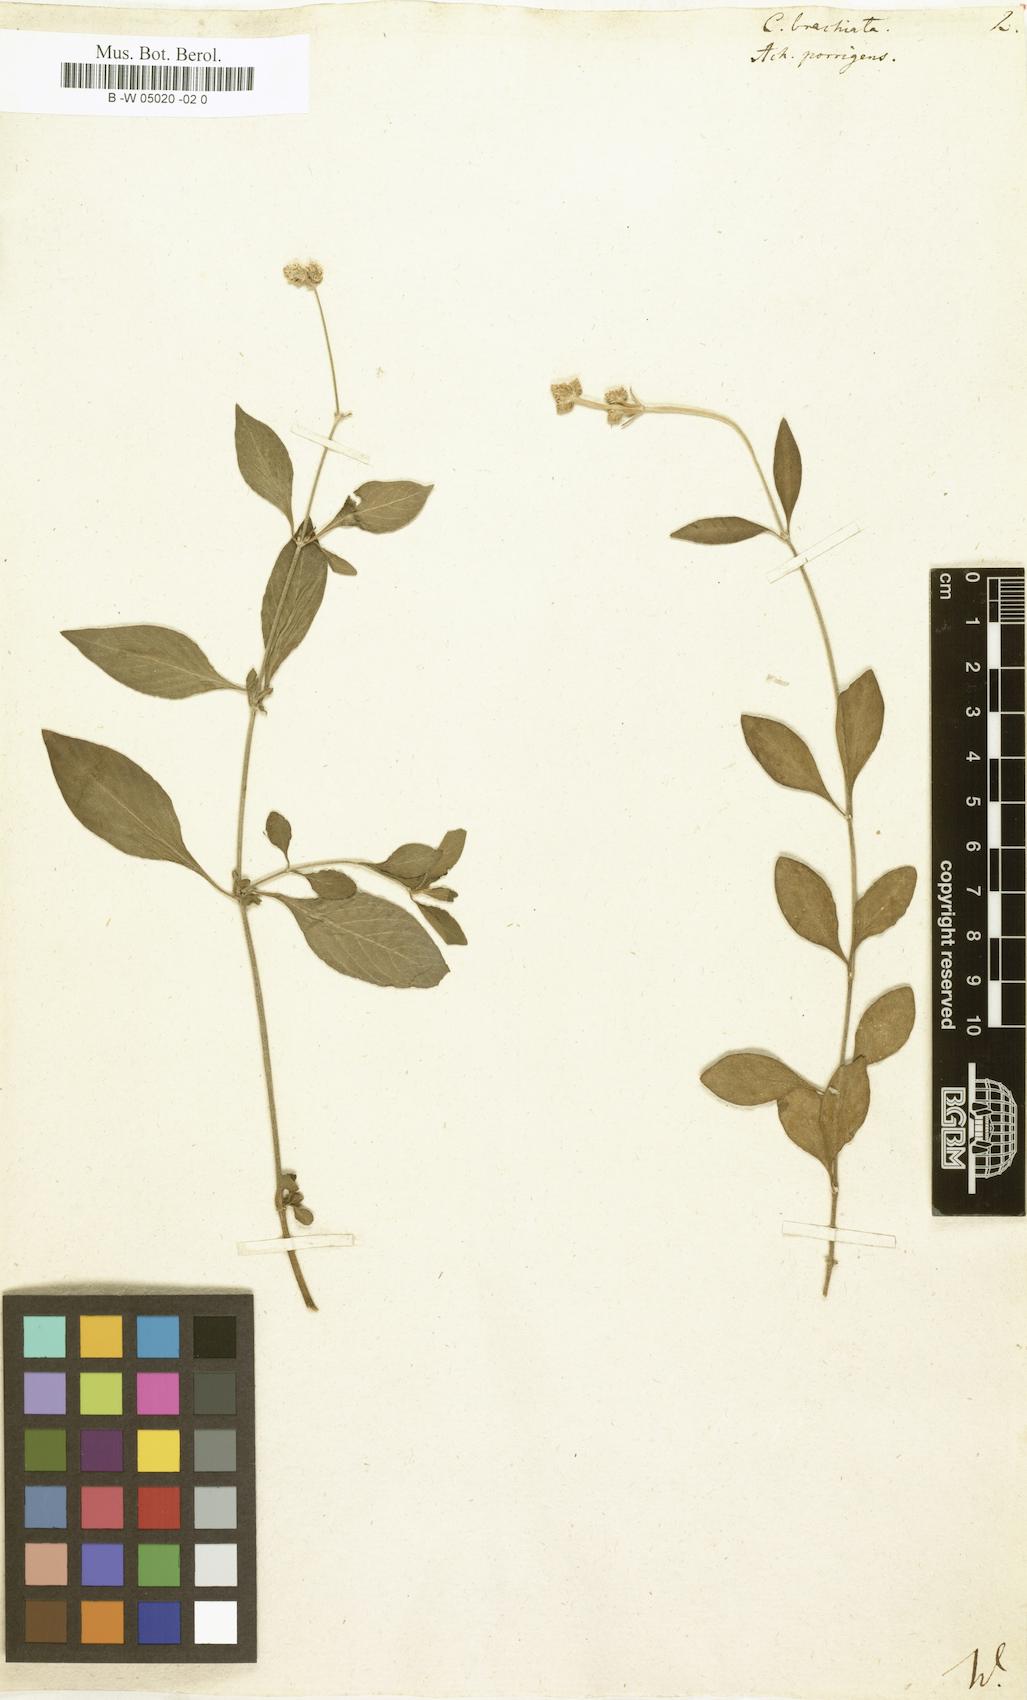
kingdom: Plantae
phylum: Tracheophyta
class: Magnoliopsida
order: Caryophyllales
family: Amaranthaceae
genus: Celosia
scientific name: Celosia
